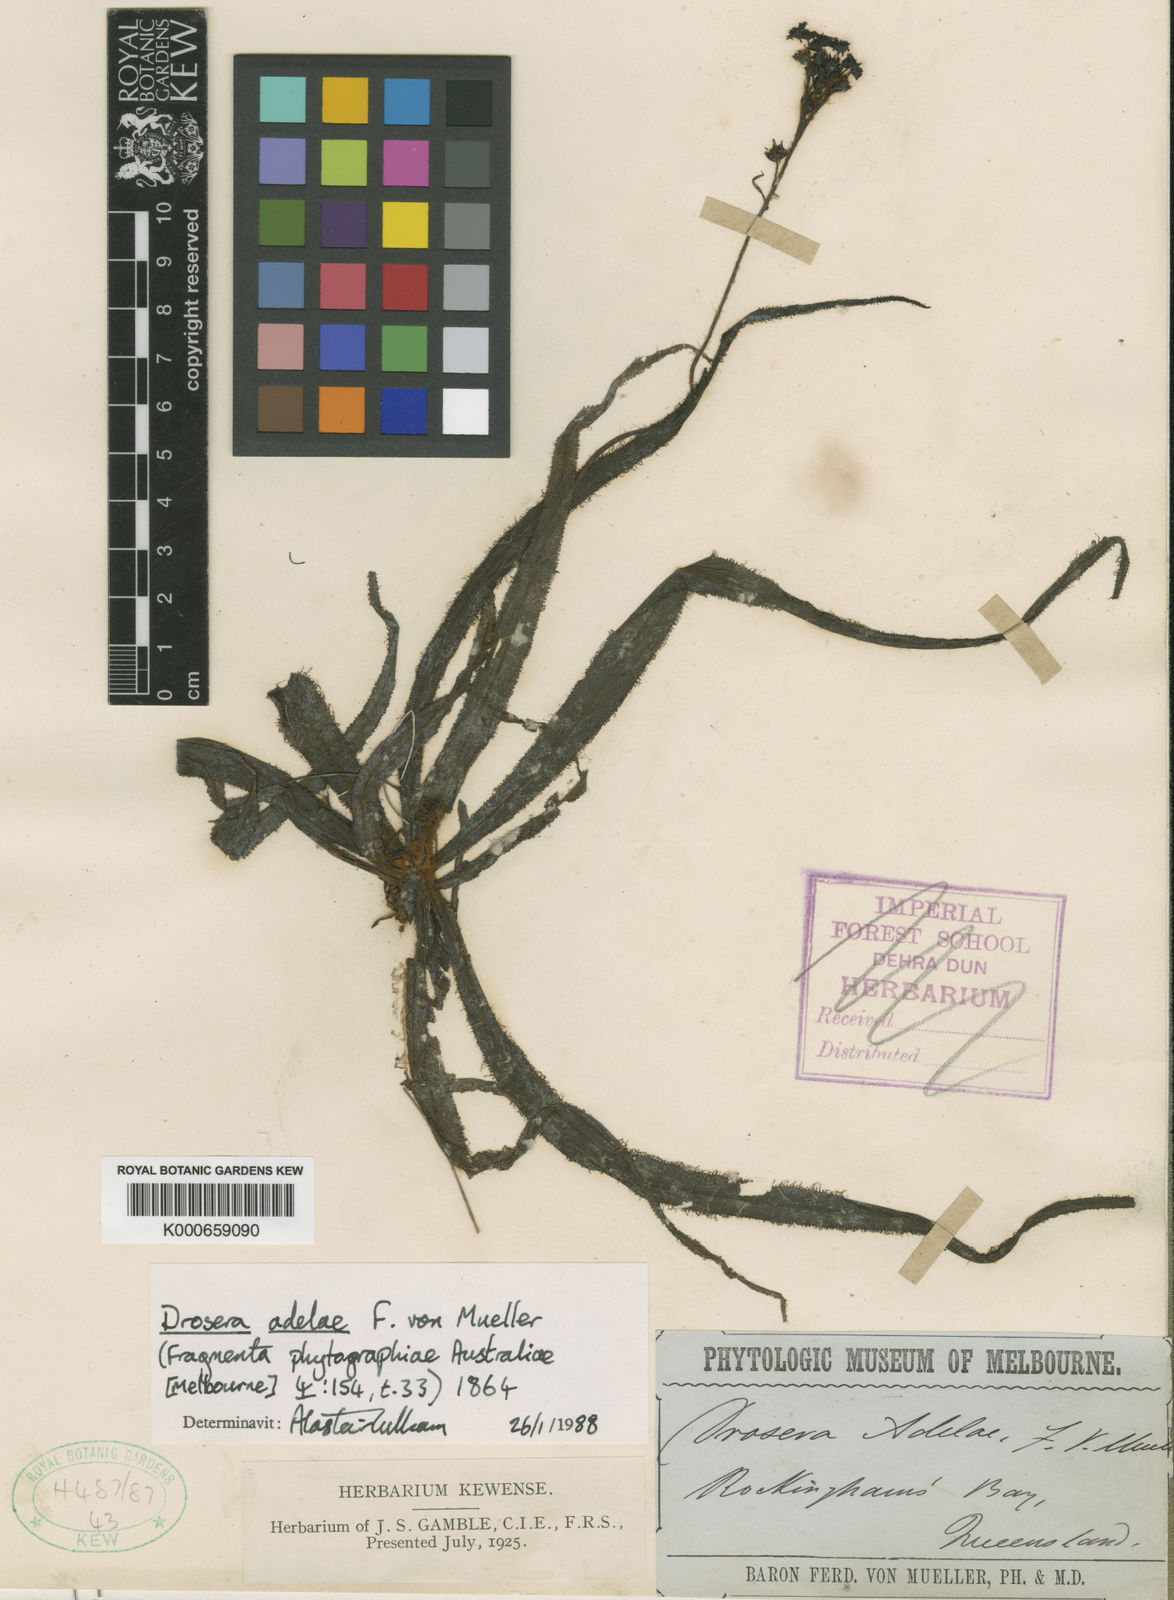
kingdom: Plantae
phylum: Tracheophyta
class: Magnoliopsida
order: Caryophyllales
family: Droseraceae
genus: Drosera
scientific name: Drosera adelae
